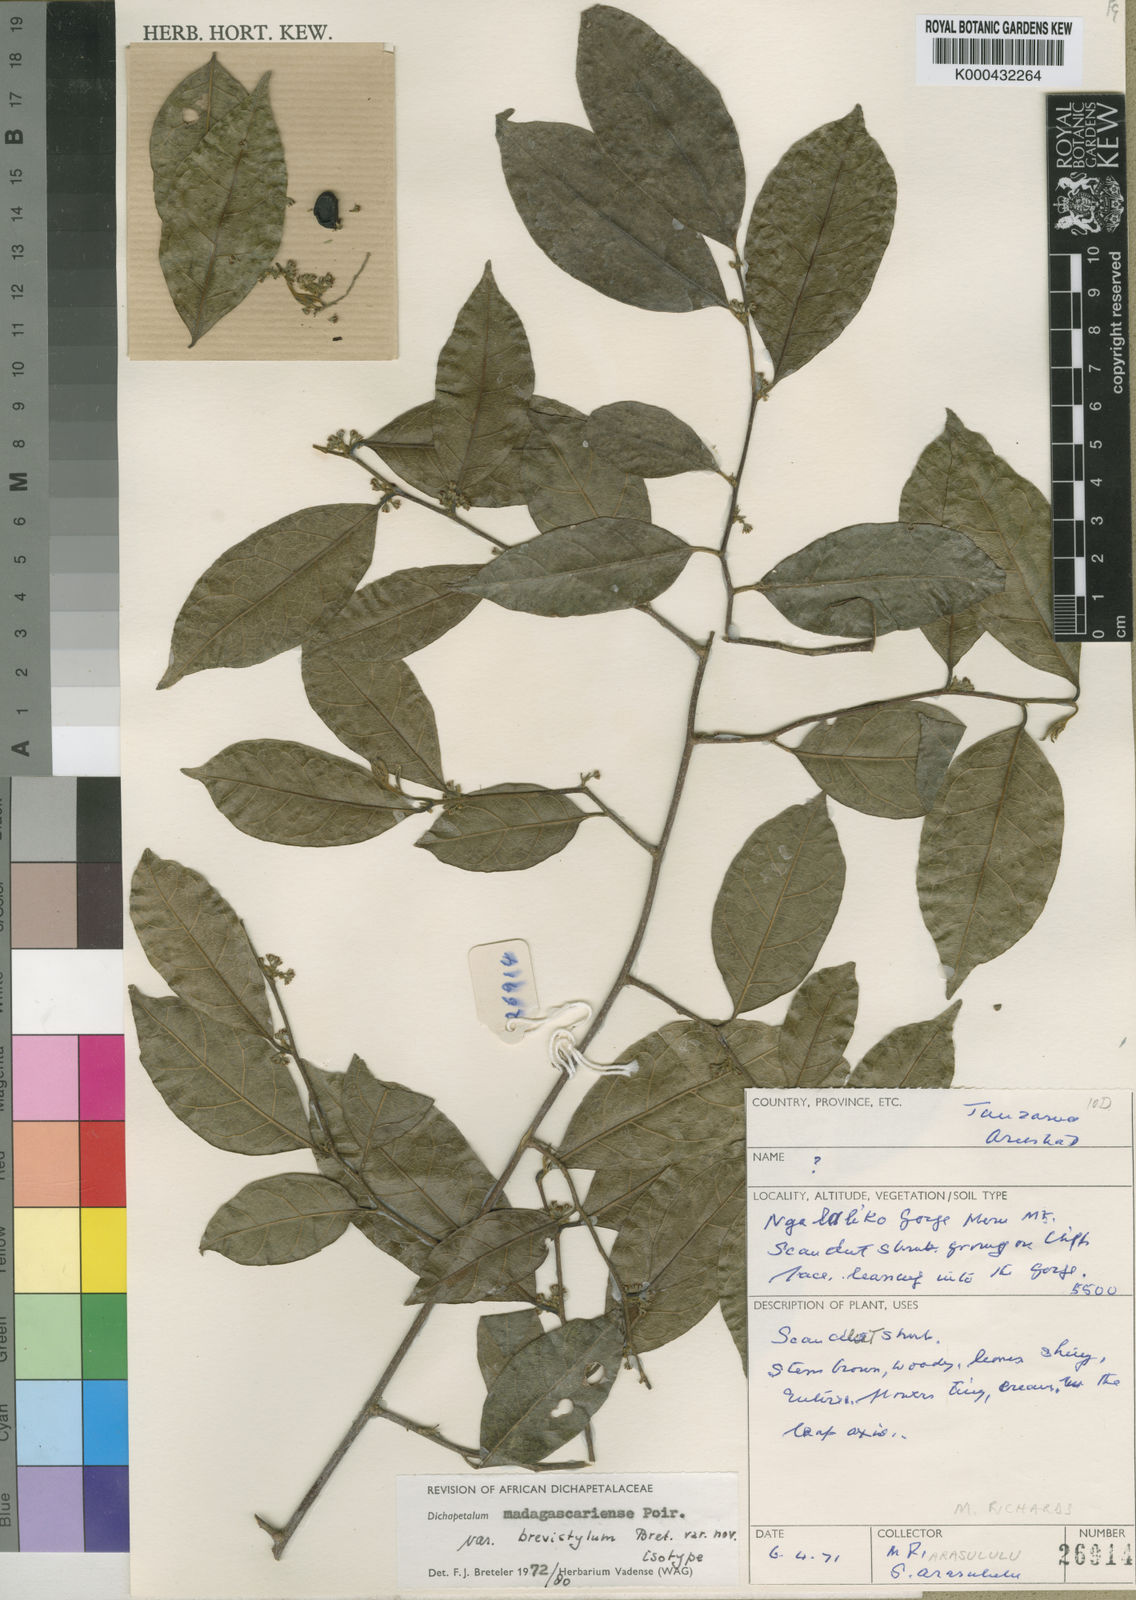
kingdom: Plantae
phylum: Tracheophyta
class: Magnoliopsida
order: Malpighiales
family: Dichapetalaceae
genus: Dichapetalum
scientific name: Dichapetalum madagascariense
